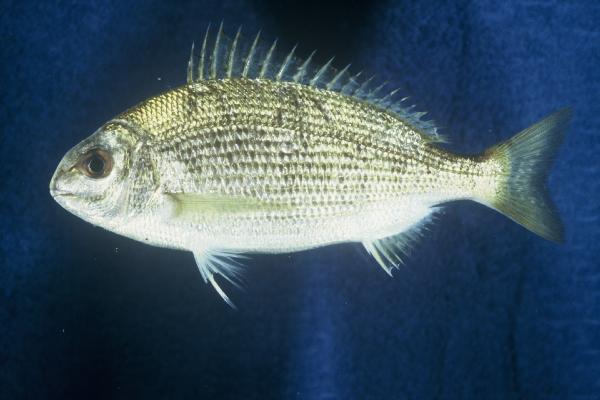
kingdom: Animalia
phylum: Chordata
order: Perciformes
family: Sparidae
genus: Crenidens
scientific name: Crenidens crenidens
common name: Karenteen seabream
